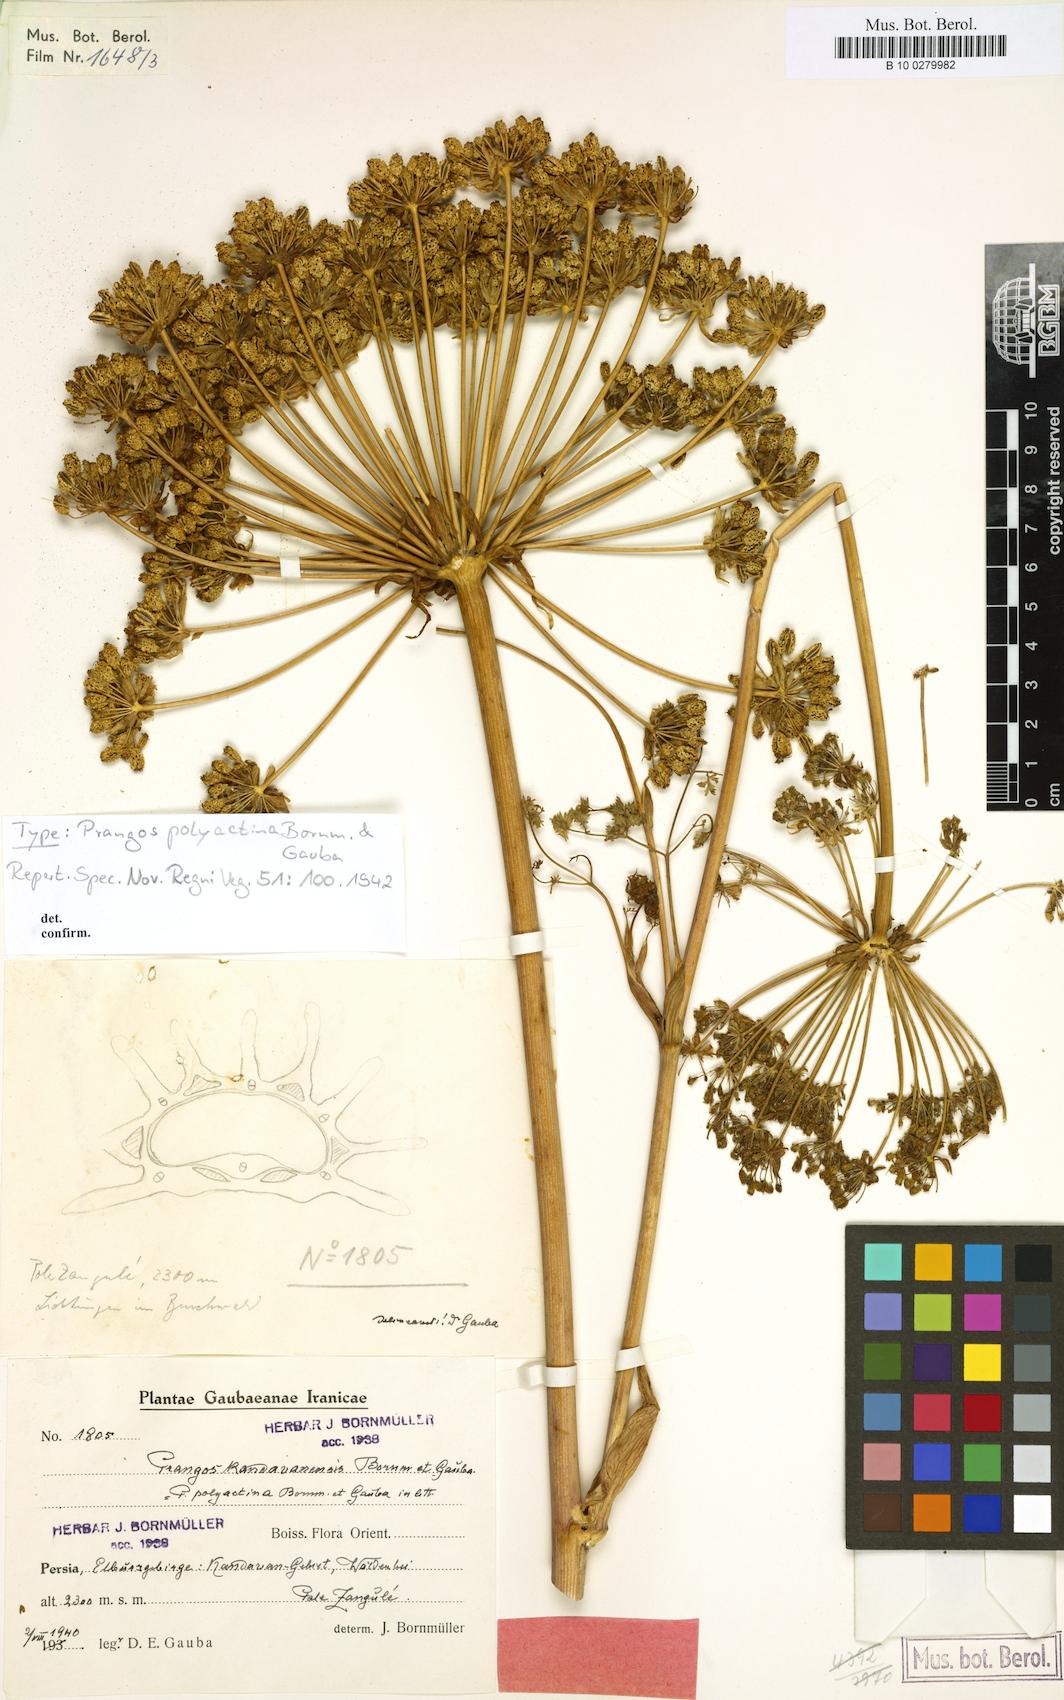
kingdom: Plantae
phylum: Tracheophyta
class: Magnoliopsida
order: Apiales
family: Apiaceae
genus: Laser
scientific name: Laser involucratum
